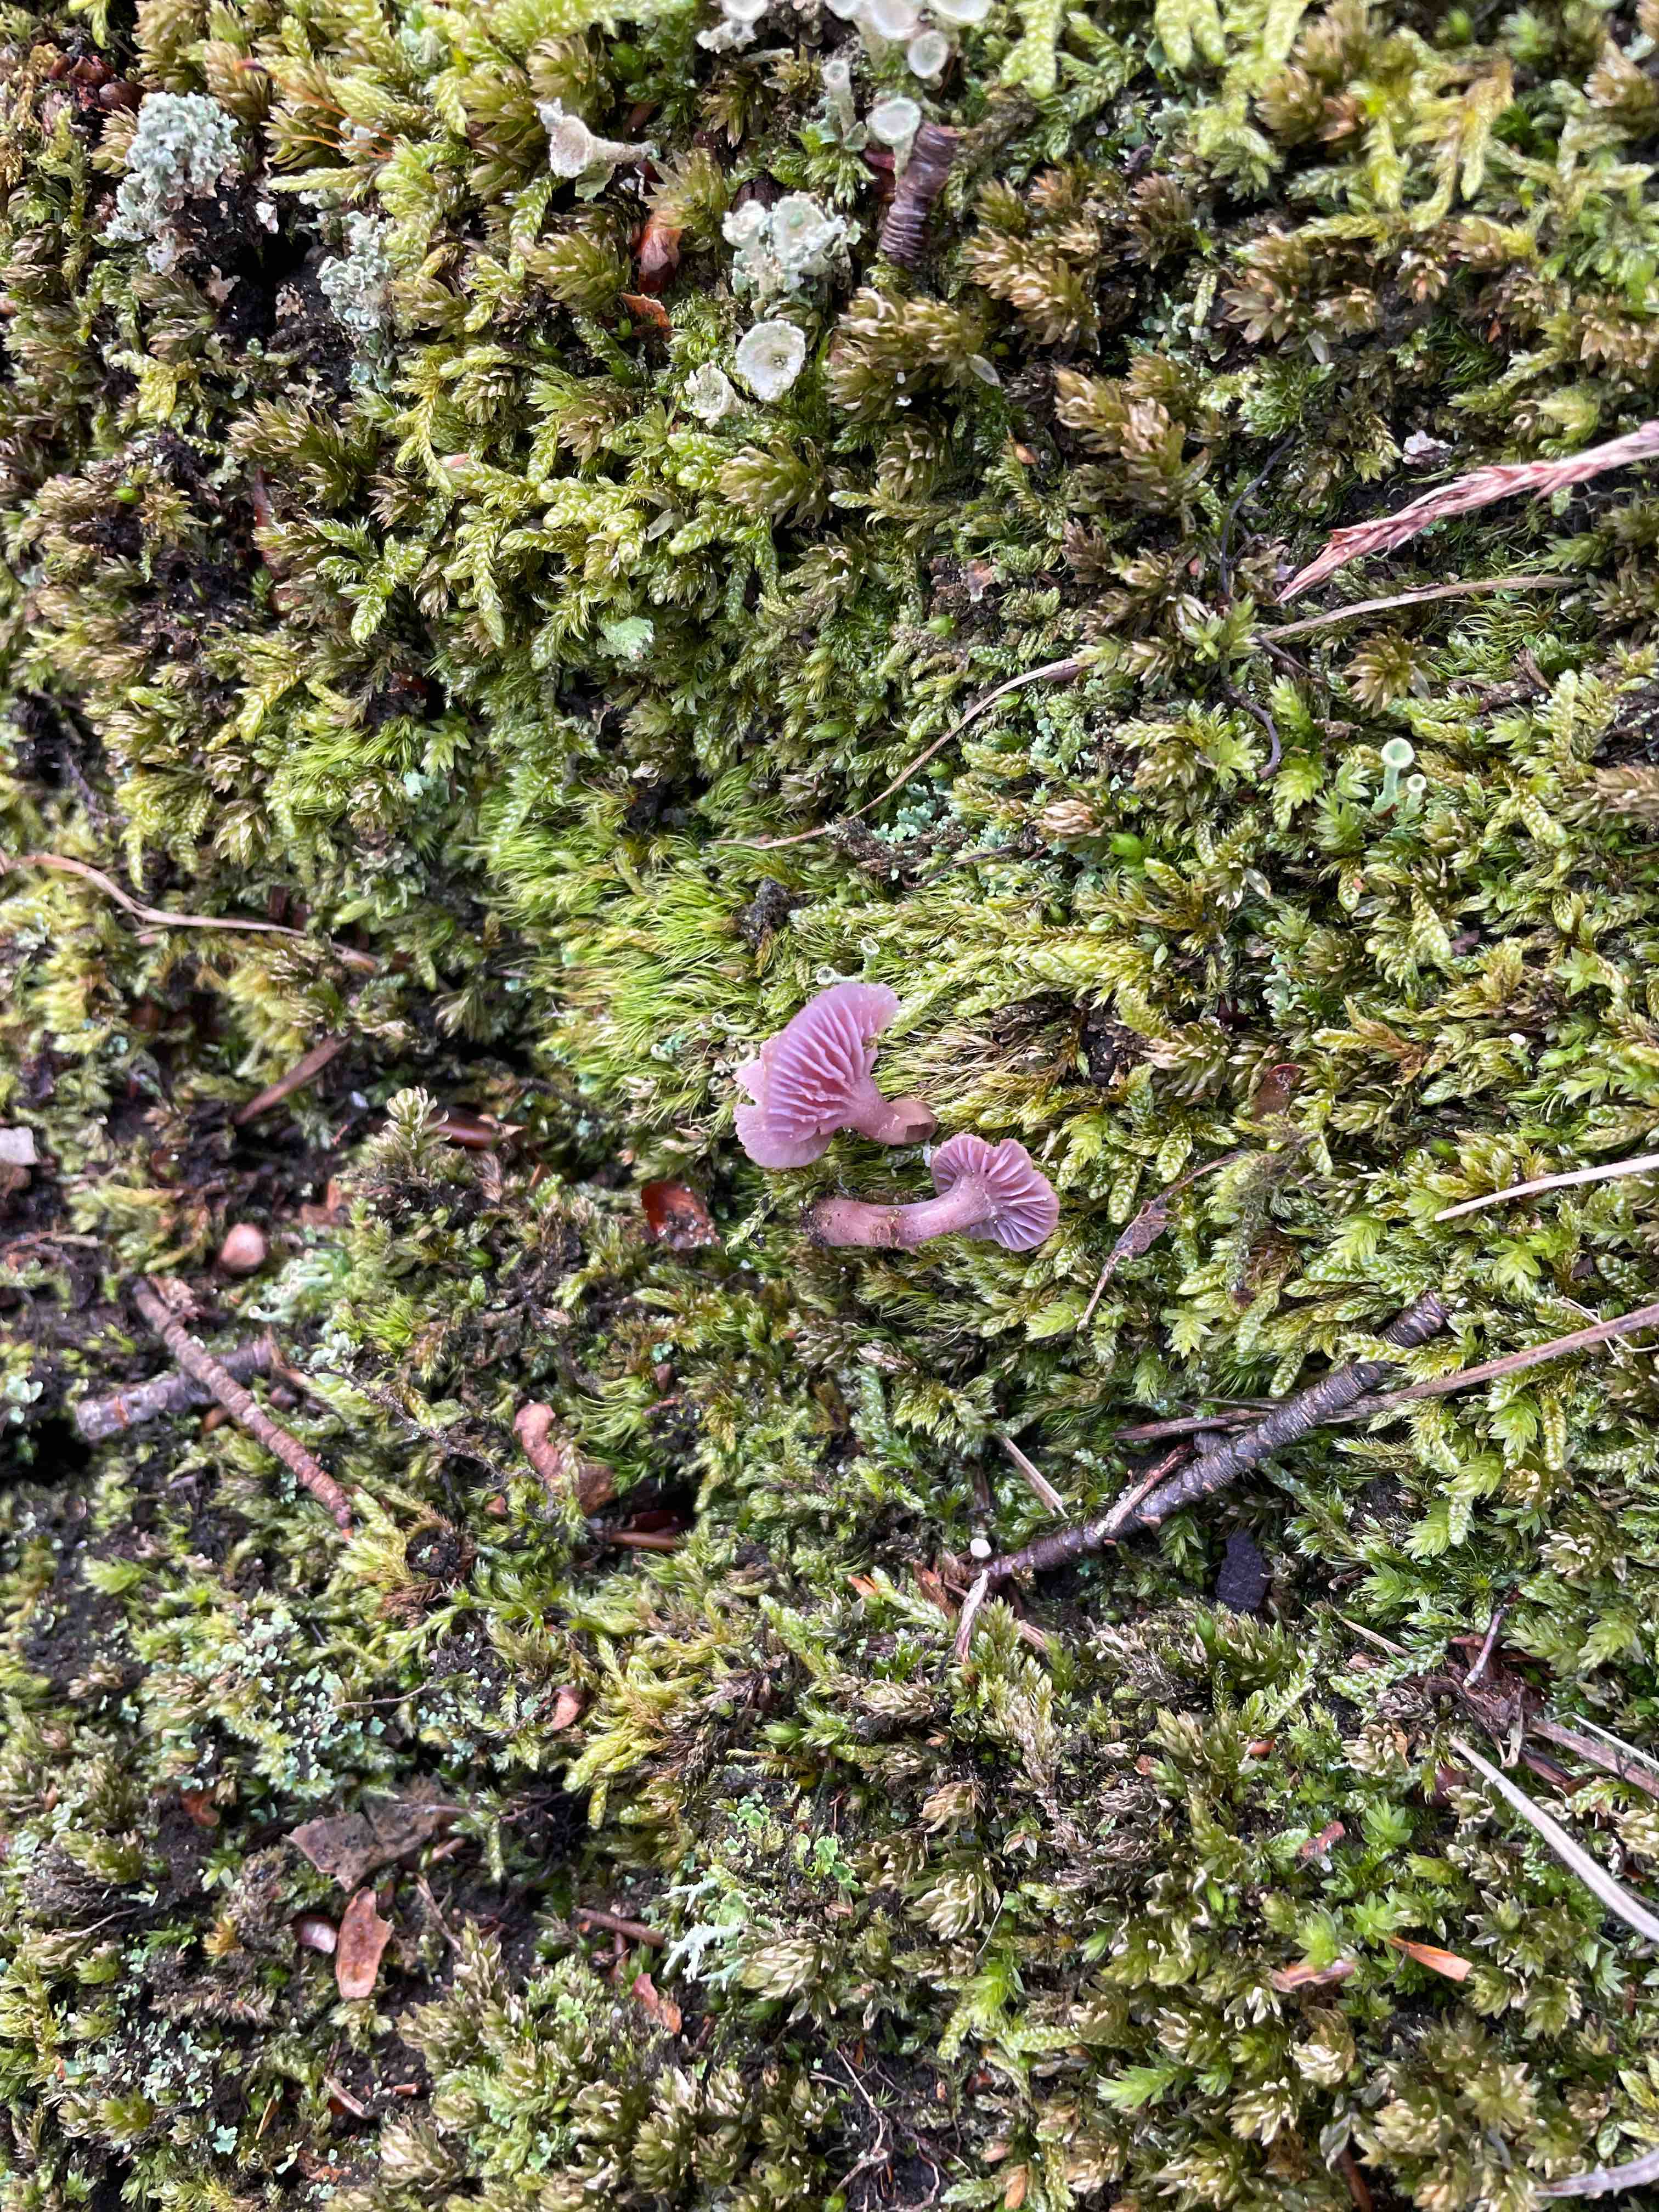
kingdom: Fungi
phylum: Basidiomycota
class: Agaricomycetes
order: Agaricales
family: Hydnangiaceae
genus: Laccaria
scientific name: Laccaria amethystina
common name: violet ametysthat
